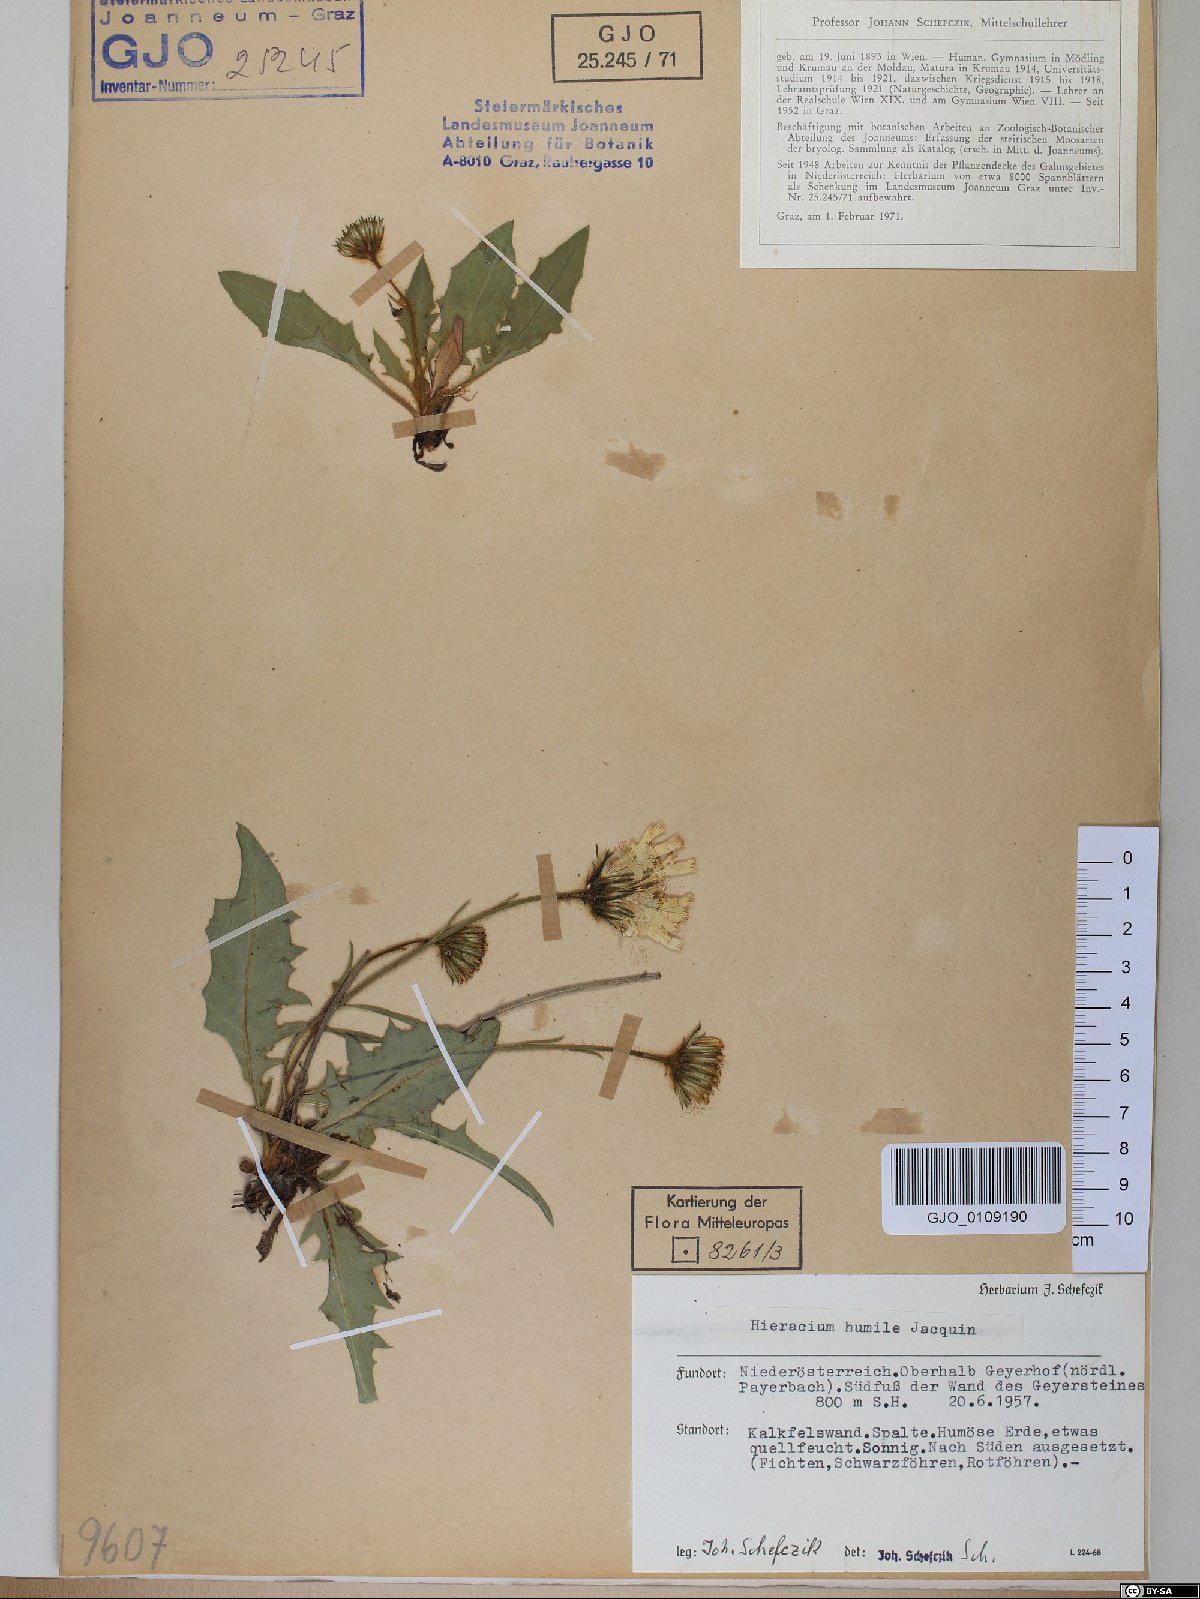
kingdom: Plantae
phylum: Tracheophyta
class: Magnoliopsida
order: Asterales
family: Asteraceae
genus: Hieracium
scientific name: Hieracium humile
